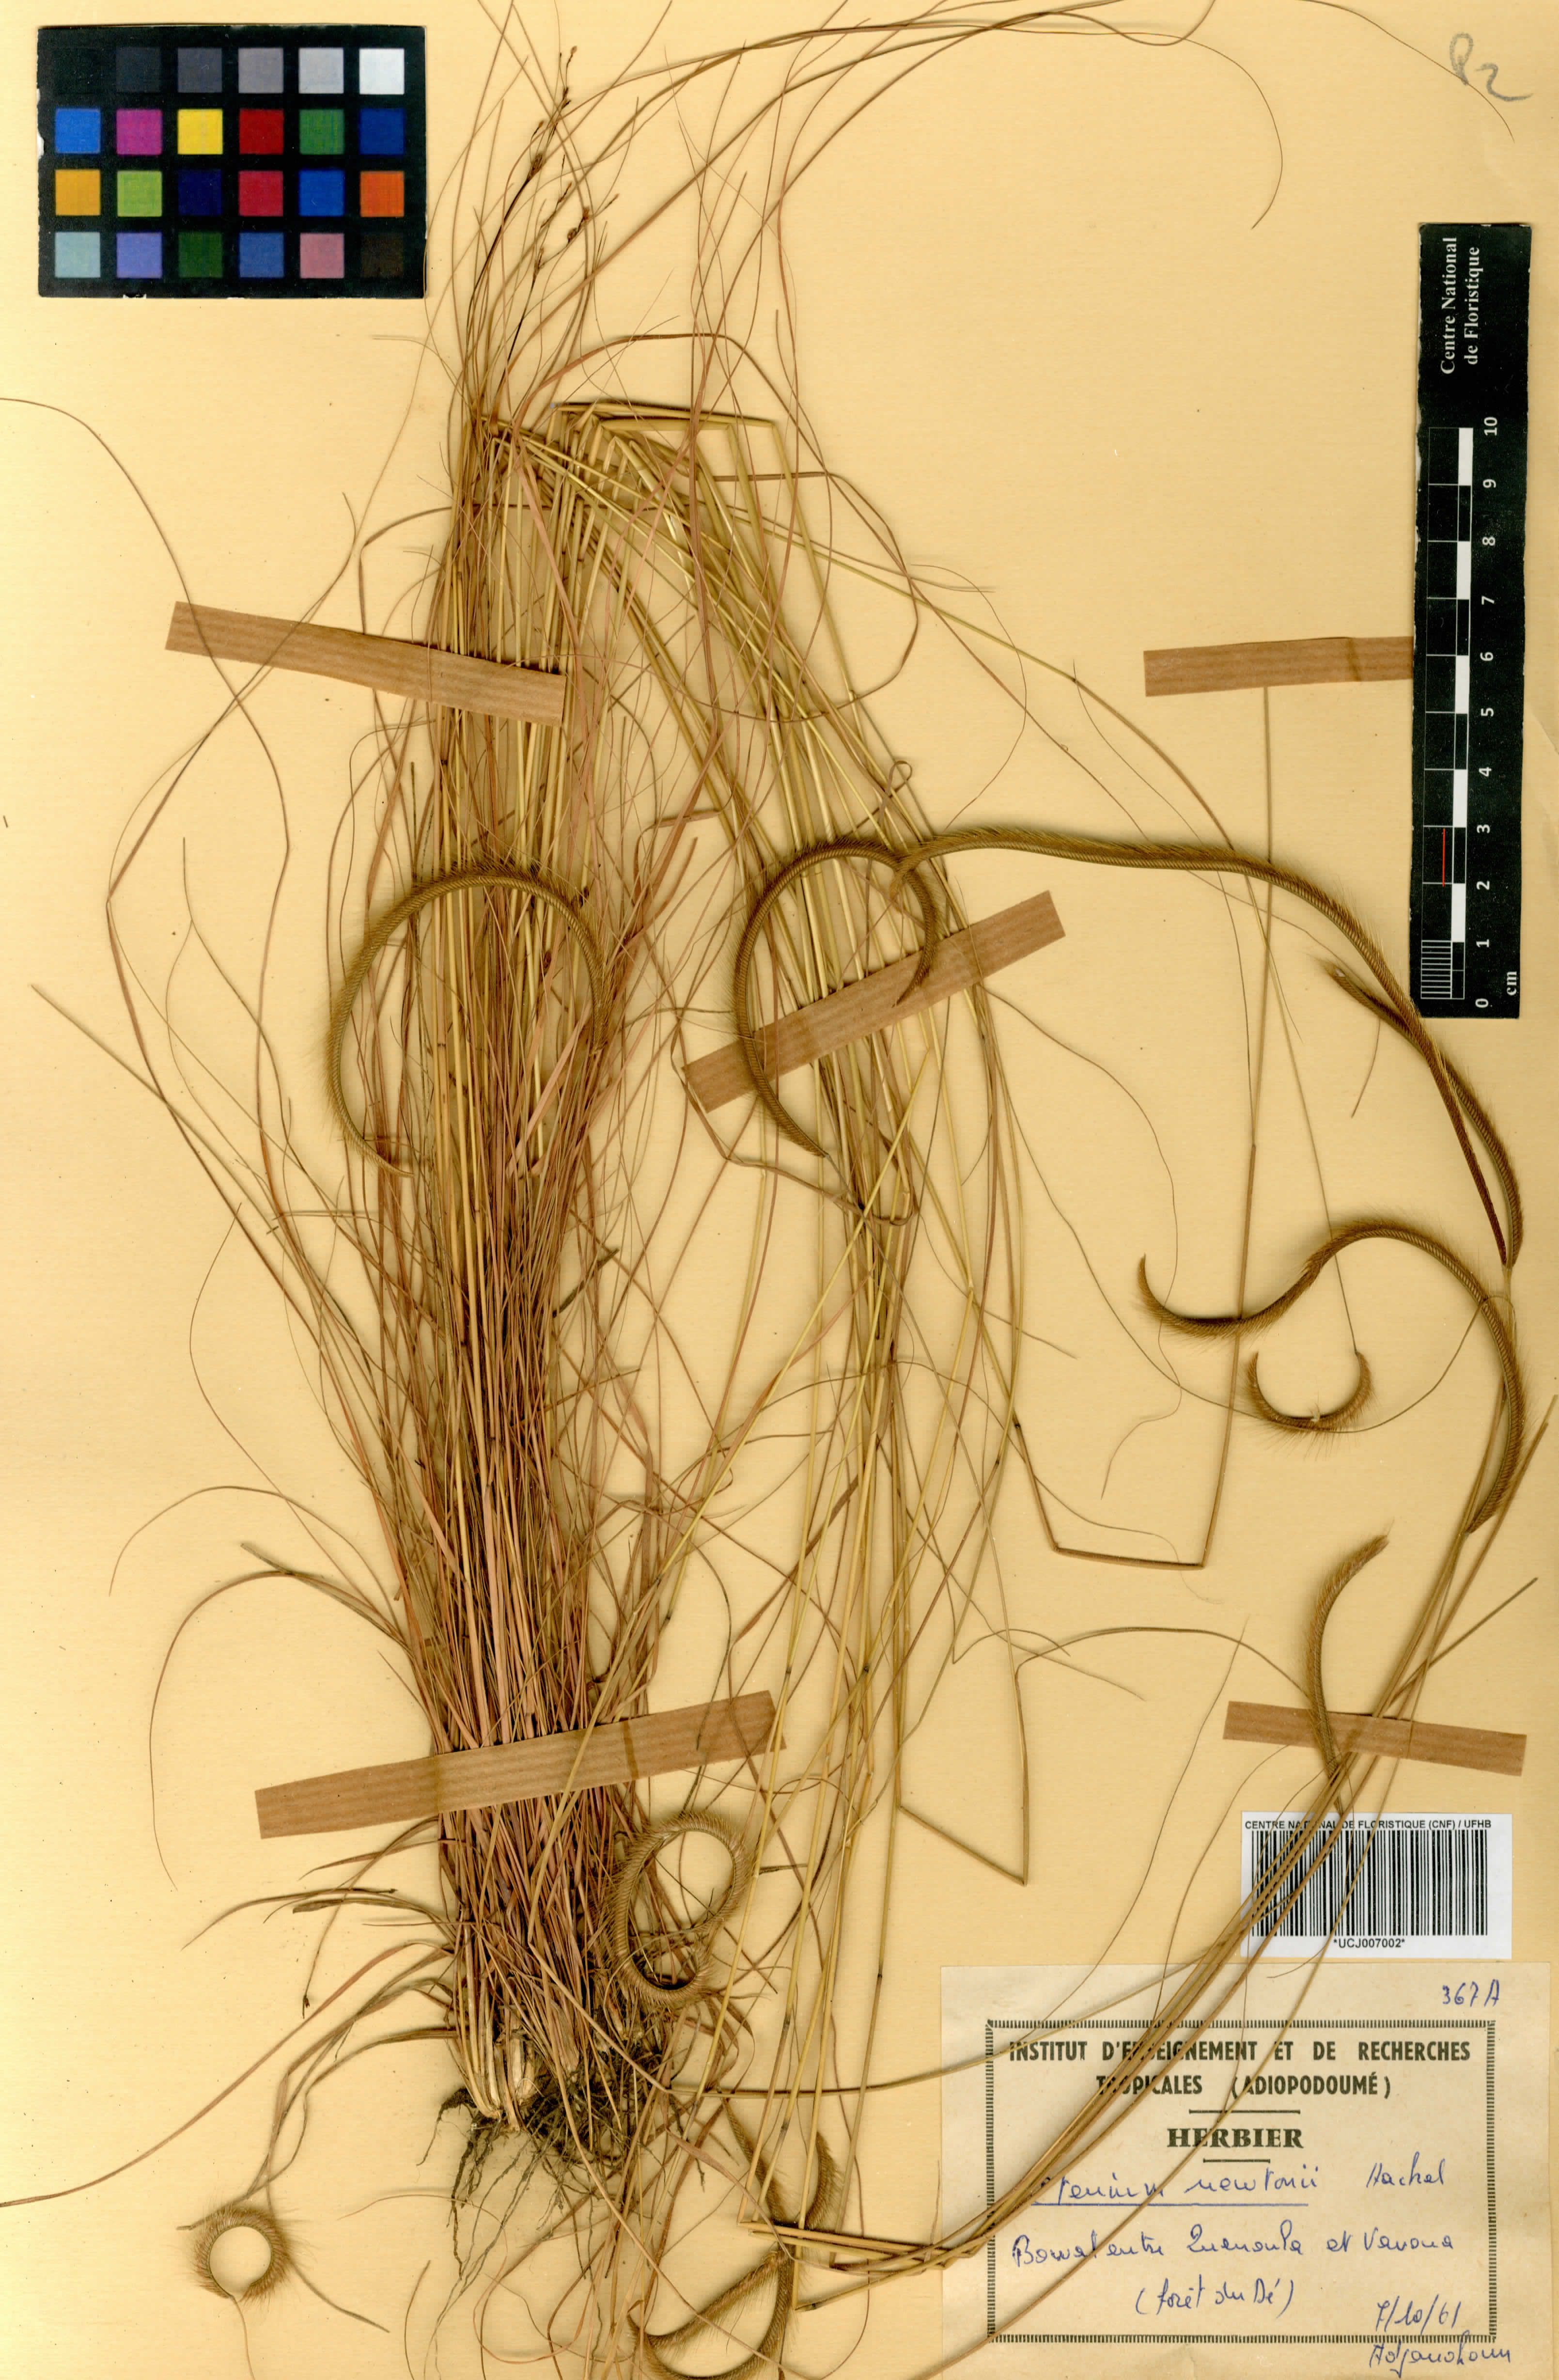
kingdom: Plantae
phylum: Tracheophyta
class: Liliopsida
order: Poales
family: Poaceae
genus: Ctenium
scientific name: Ctenium newtonii
